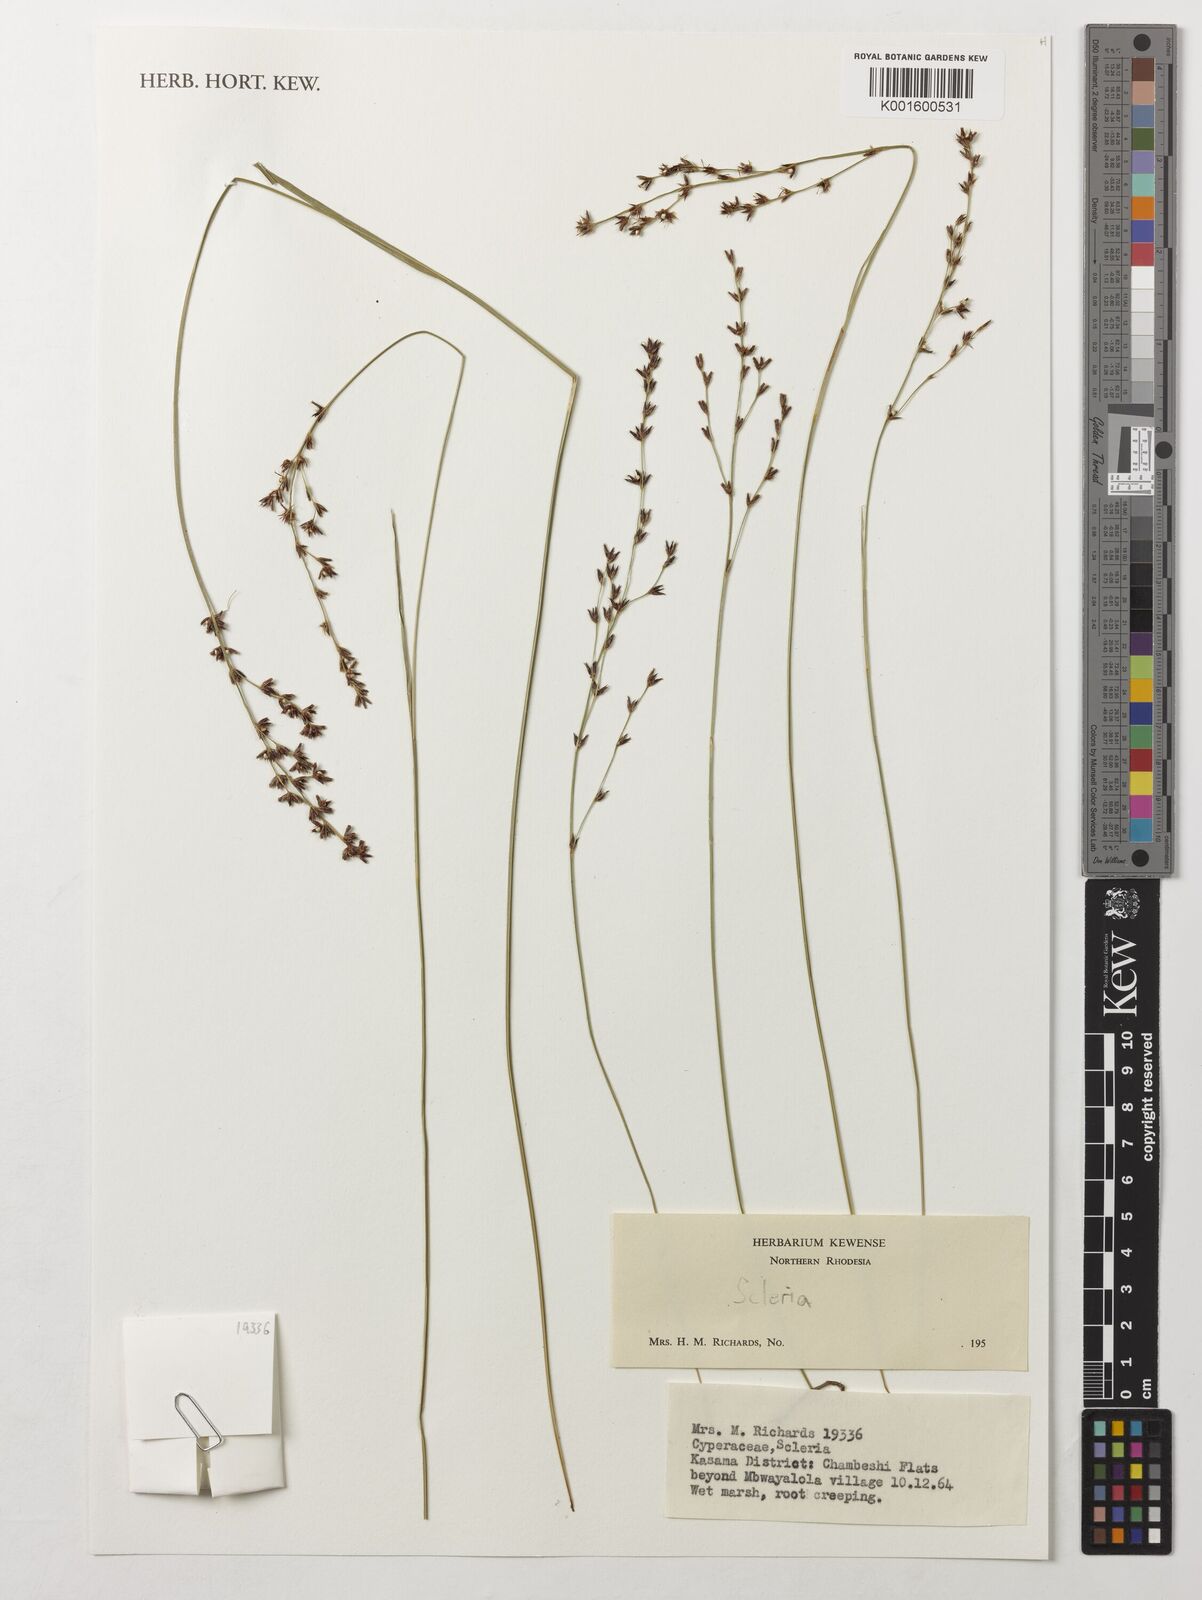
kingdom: Plantae
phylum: Tracheophyta
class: Liliopsida
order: Poales
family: Cyperaceae
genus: Scleria
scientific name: Scleria
